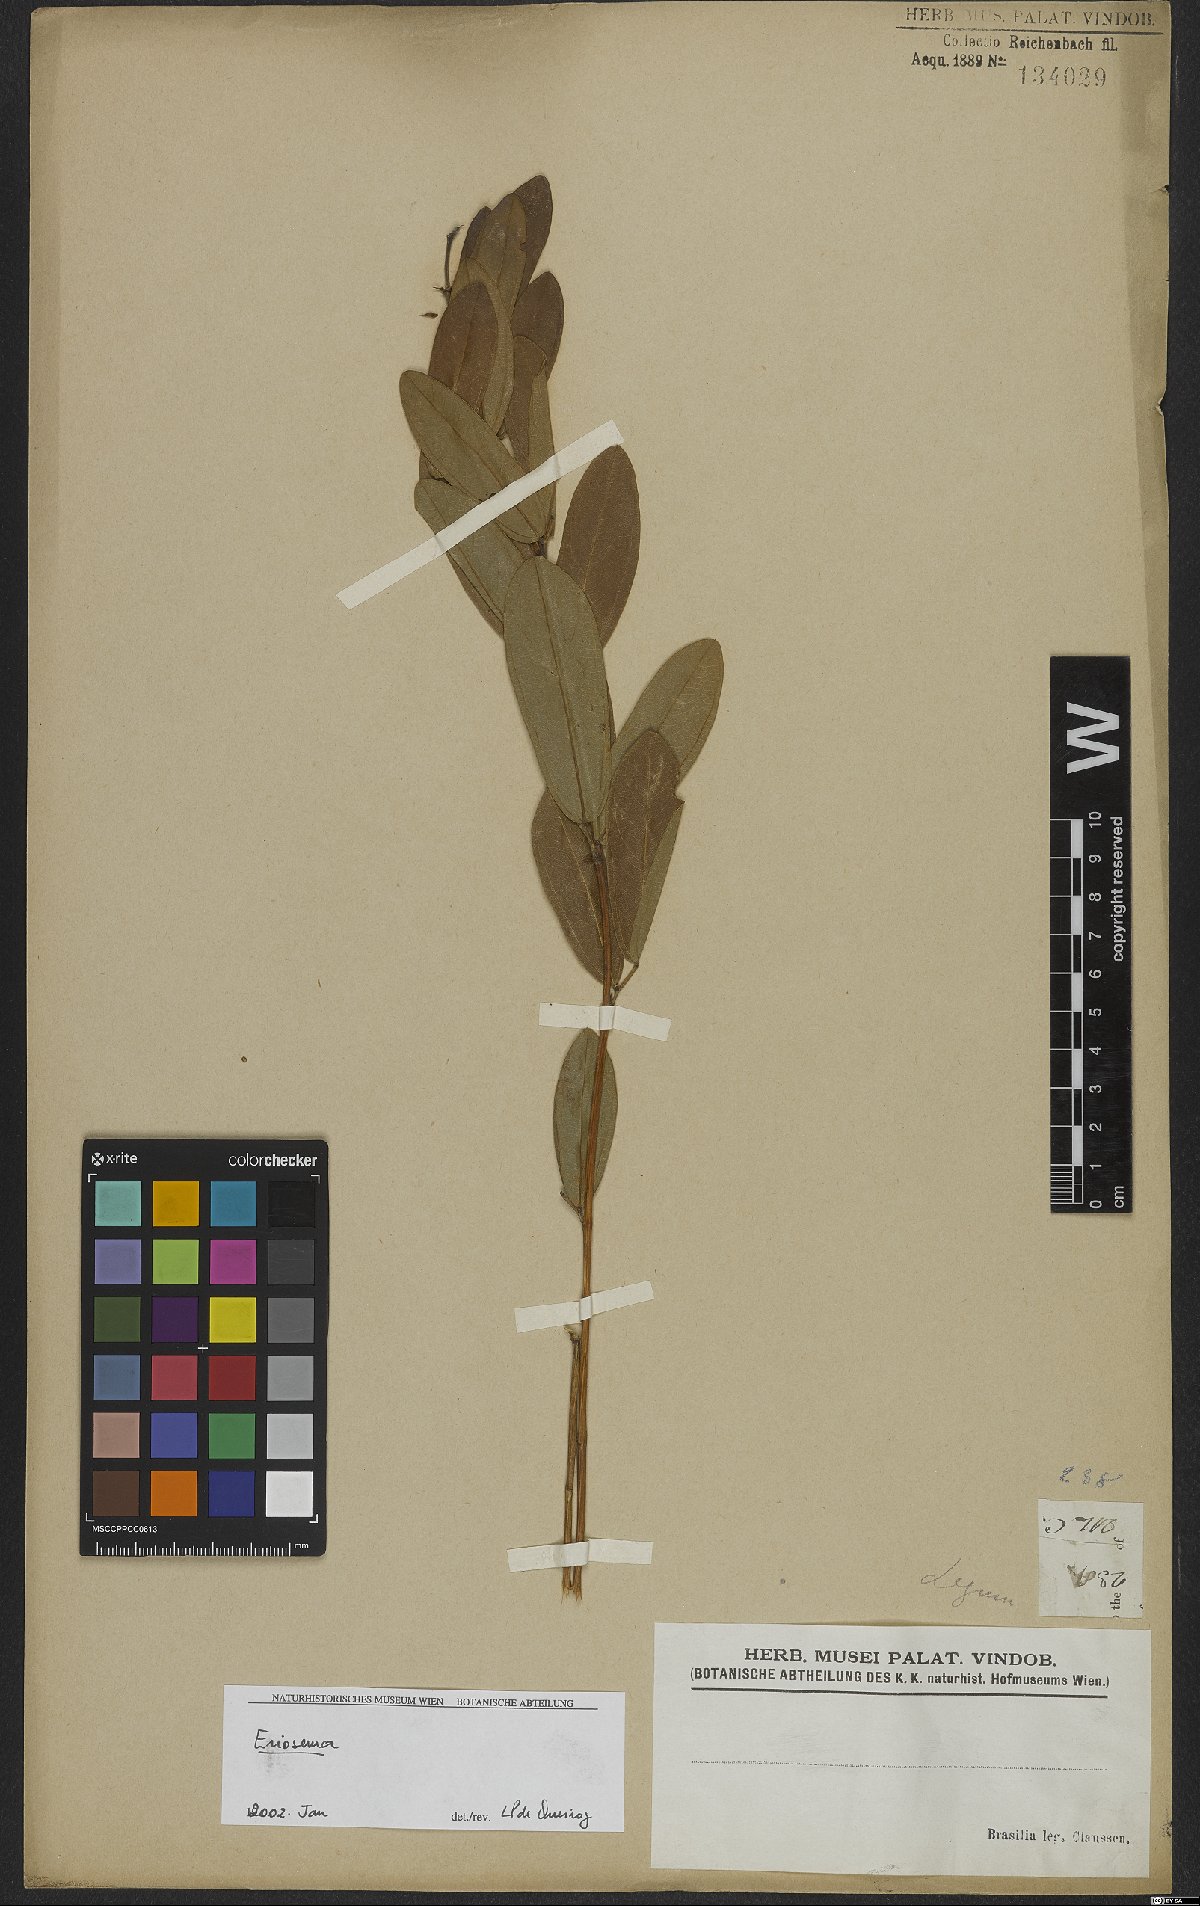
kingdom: Plantae
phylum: Tracheophyta
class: Magnoliopsida
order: Fabales
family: Fabaceae
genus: Eriosema
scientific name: Eriosema crinitum
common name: Sand pea
